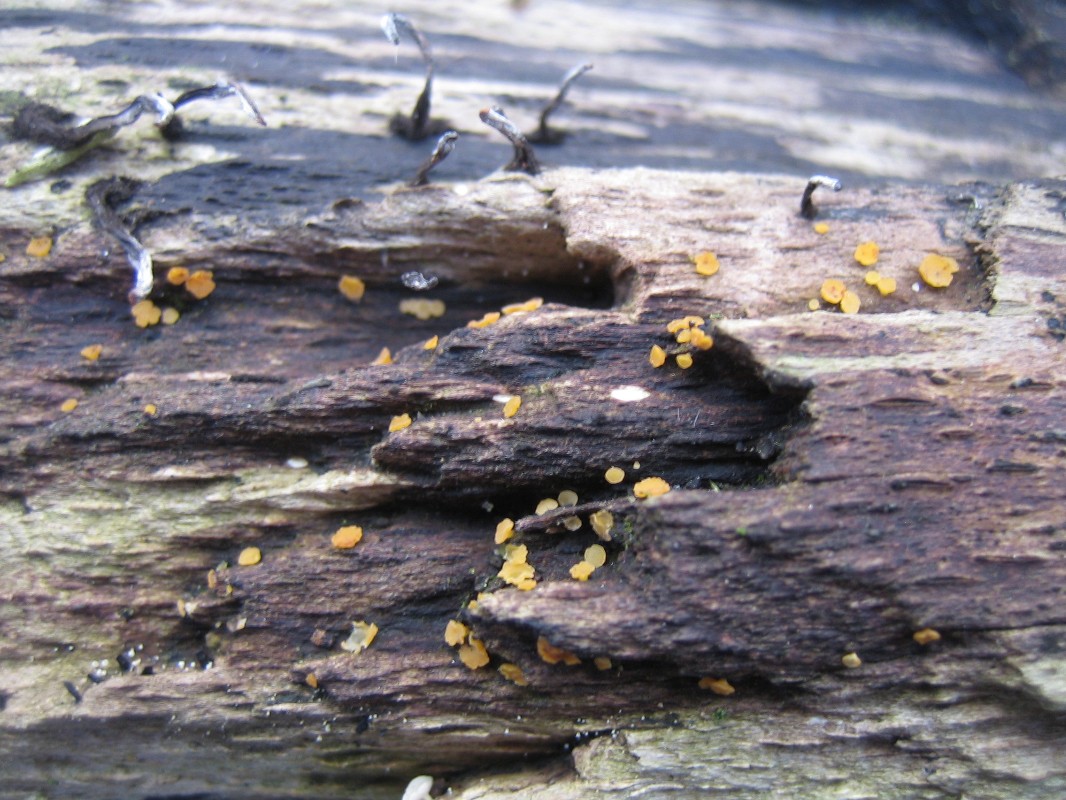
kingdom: Fungi
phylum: Ascomycota
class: Leotiomycetes
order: Helotiales
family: Helotiaceae
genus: Hymenoscyphus
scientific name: Hymenoscyphus
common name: stilkskive
